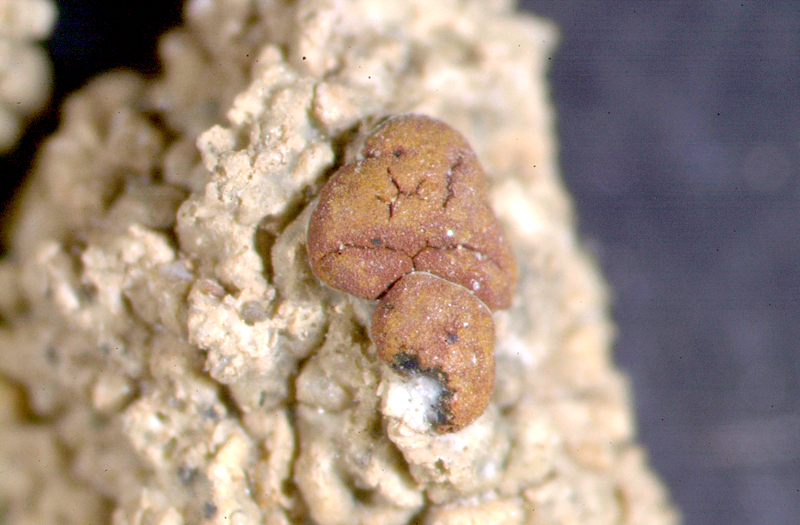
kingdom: Fungi
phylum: Ascomycota
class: Lecanoromycetes
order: Lecanorales
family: Ramalinaceae
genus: Ramalina
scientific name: Ramalina capensis
